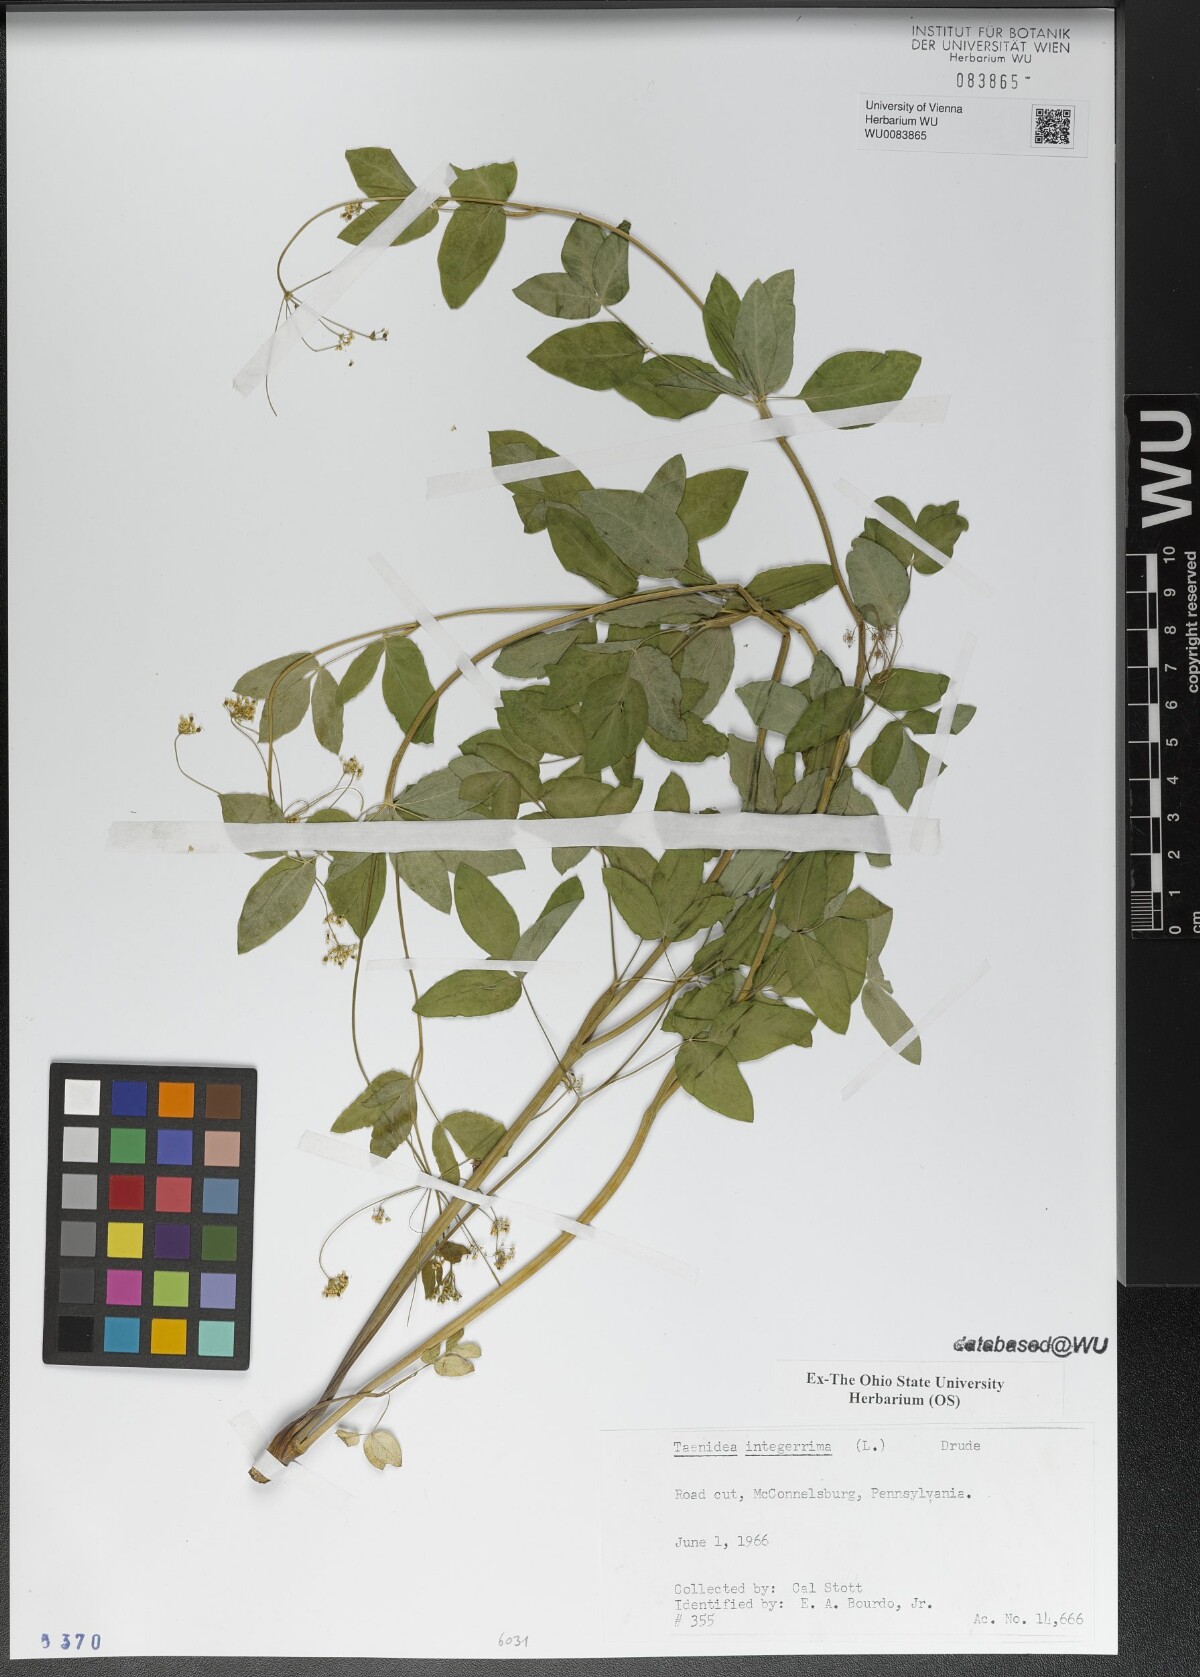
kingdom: Plantae
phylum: Tracheophyta
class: Magnoliopsida
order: Apiales
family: Apiaceae
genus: Taenidia
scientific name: Taenidia integerrima
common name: Golden alexander
